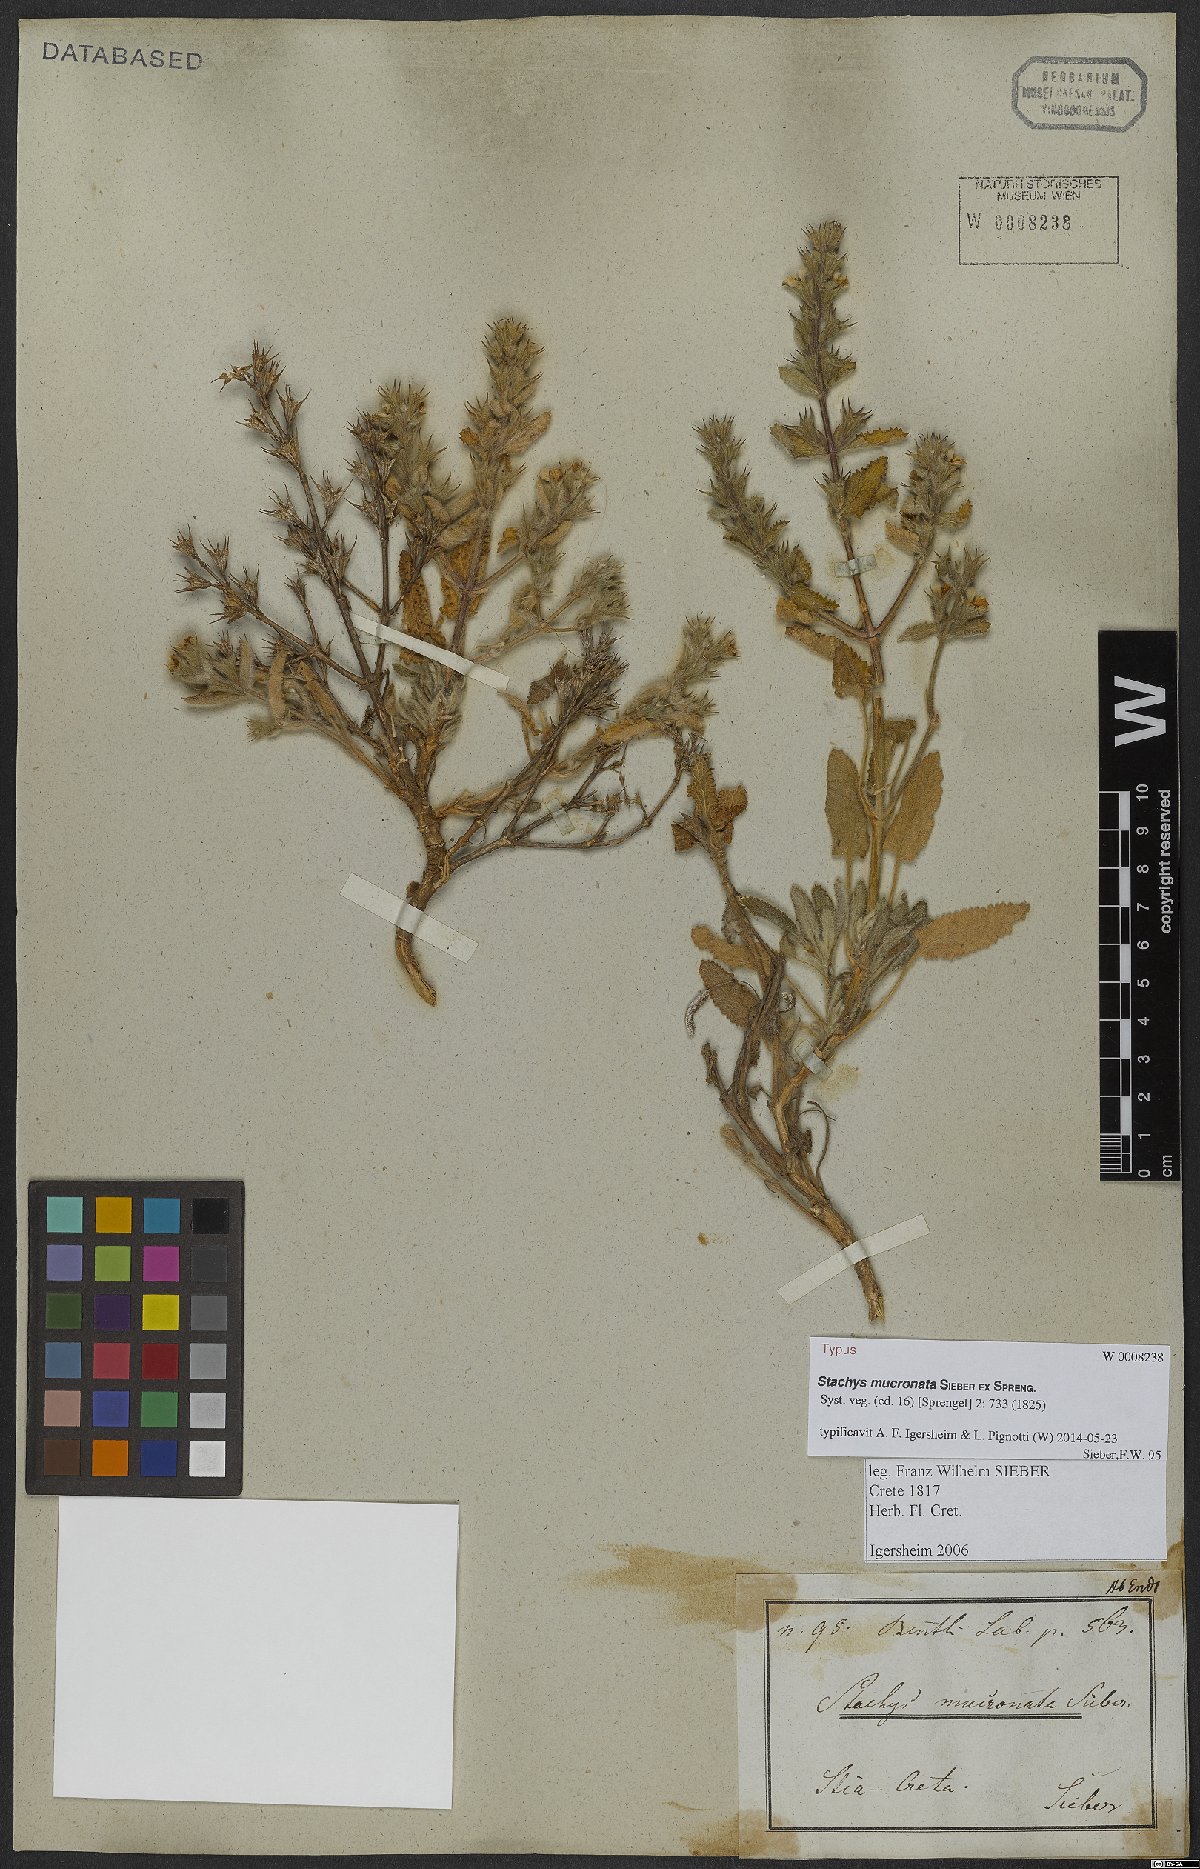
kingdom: Plantae
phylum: Tracheophyta
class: Magnoliopsida
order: Lamiales
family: Lamiaceae
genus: Stachys
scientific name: Stachys mucronata
